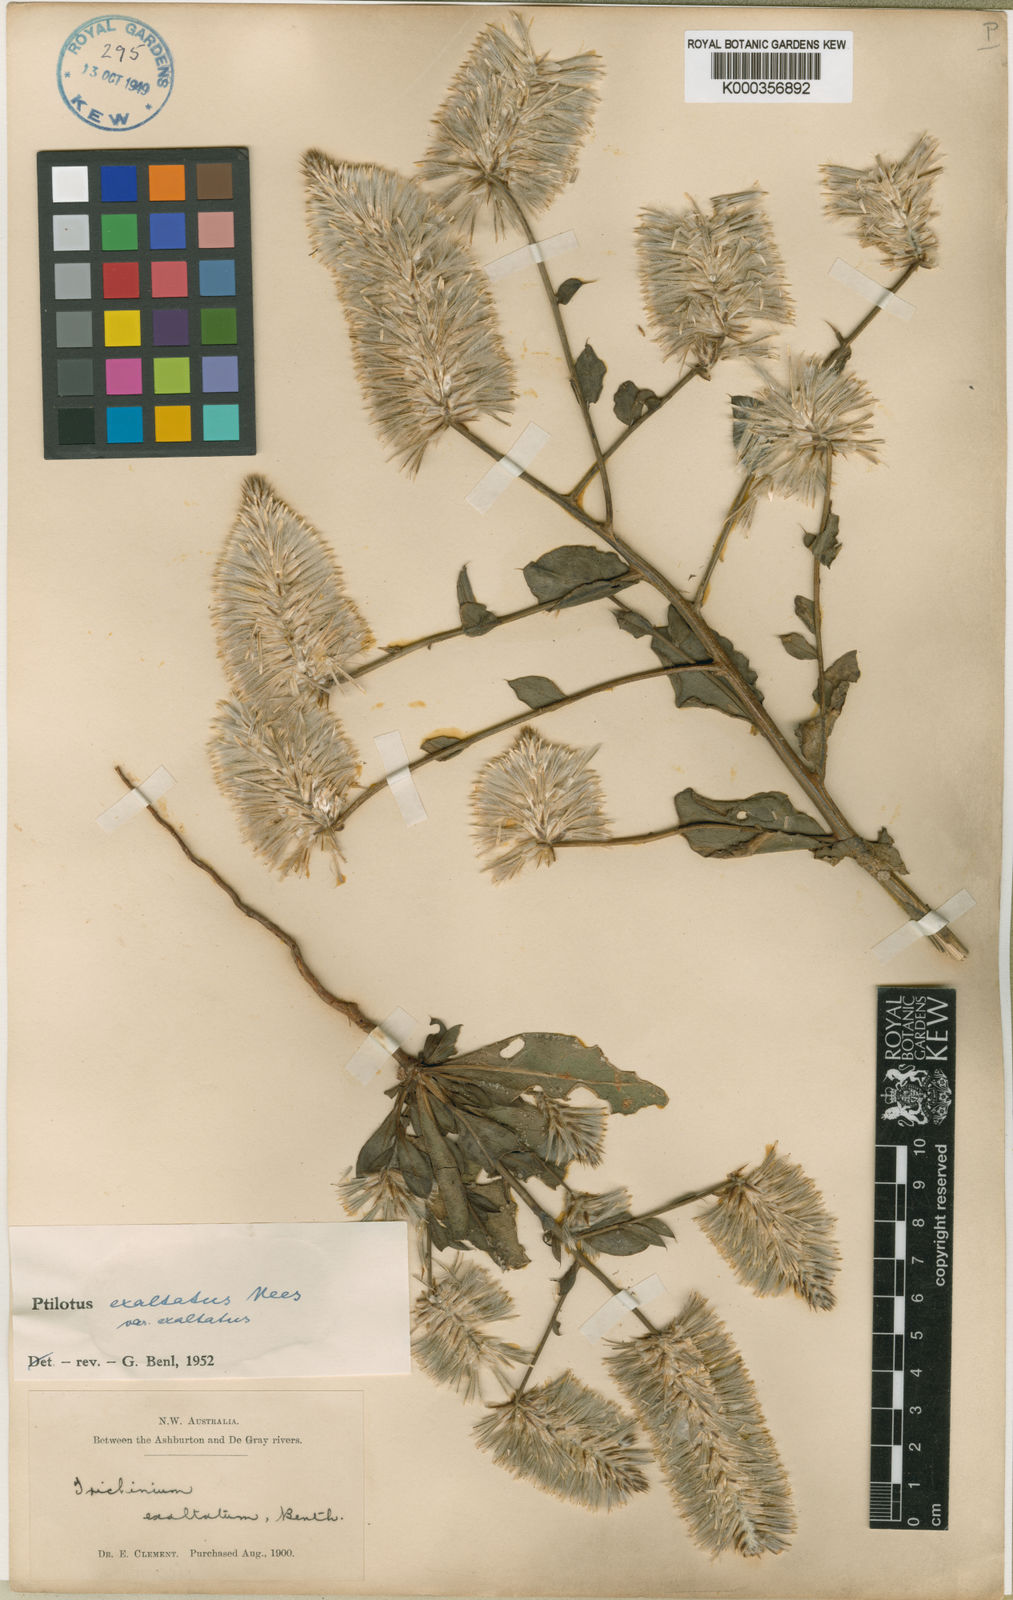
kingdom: Plantae
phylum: Tracheophyta
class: Magnoliopsida
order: Caryophyllales
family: Amaranthaceae
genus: Ptilotus
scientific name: Ptilotus
